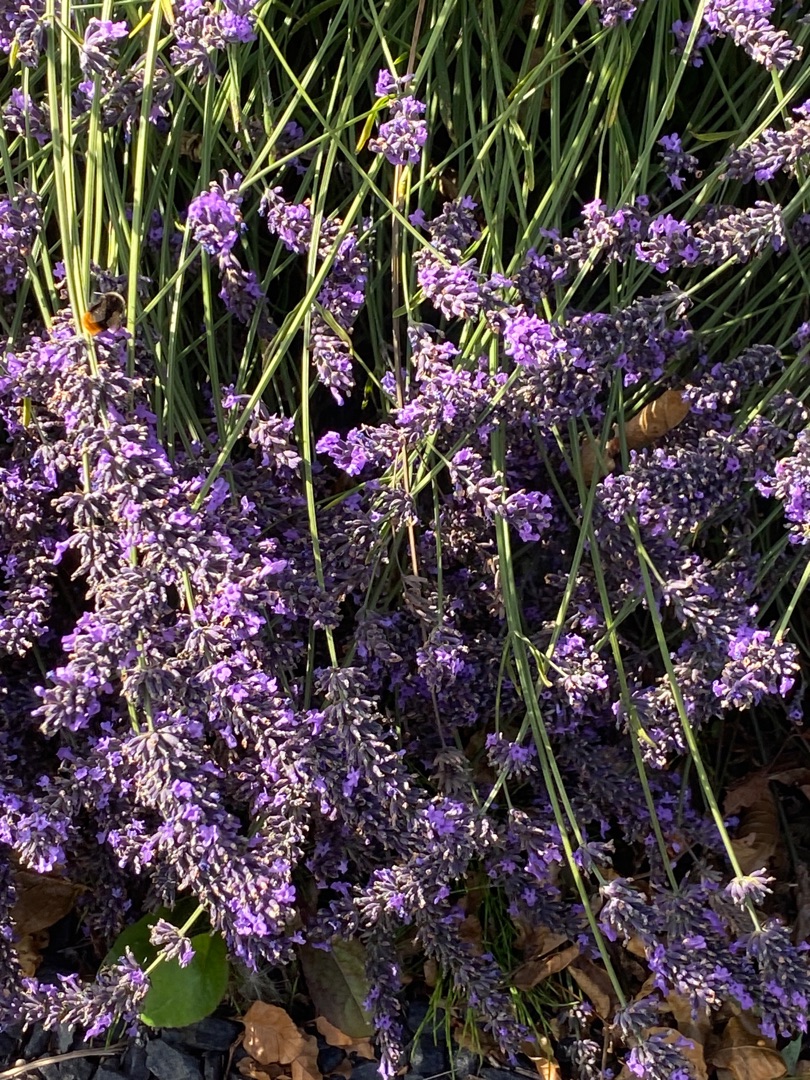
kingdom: Plantae
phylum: Tracheophyta
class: Magnoliopsida
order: Lamiales
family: Lamiaceae
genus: Lavandula
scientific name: Lavandula
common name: Lavendelslægten
